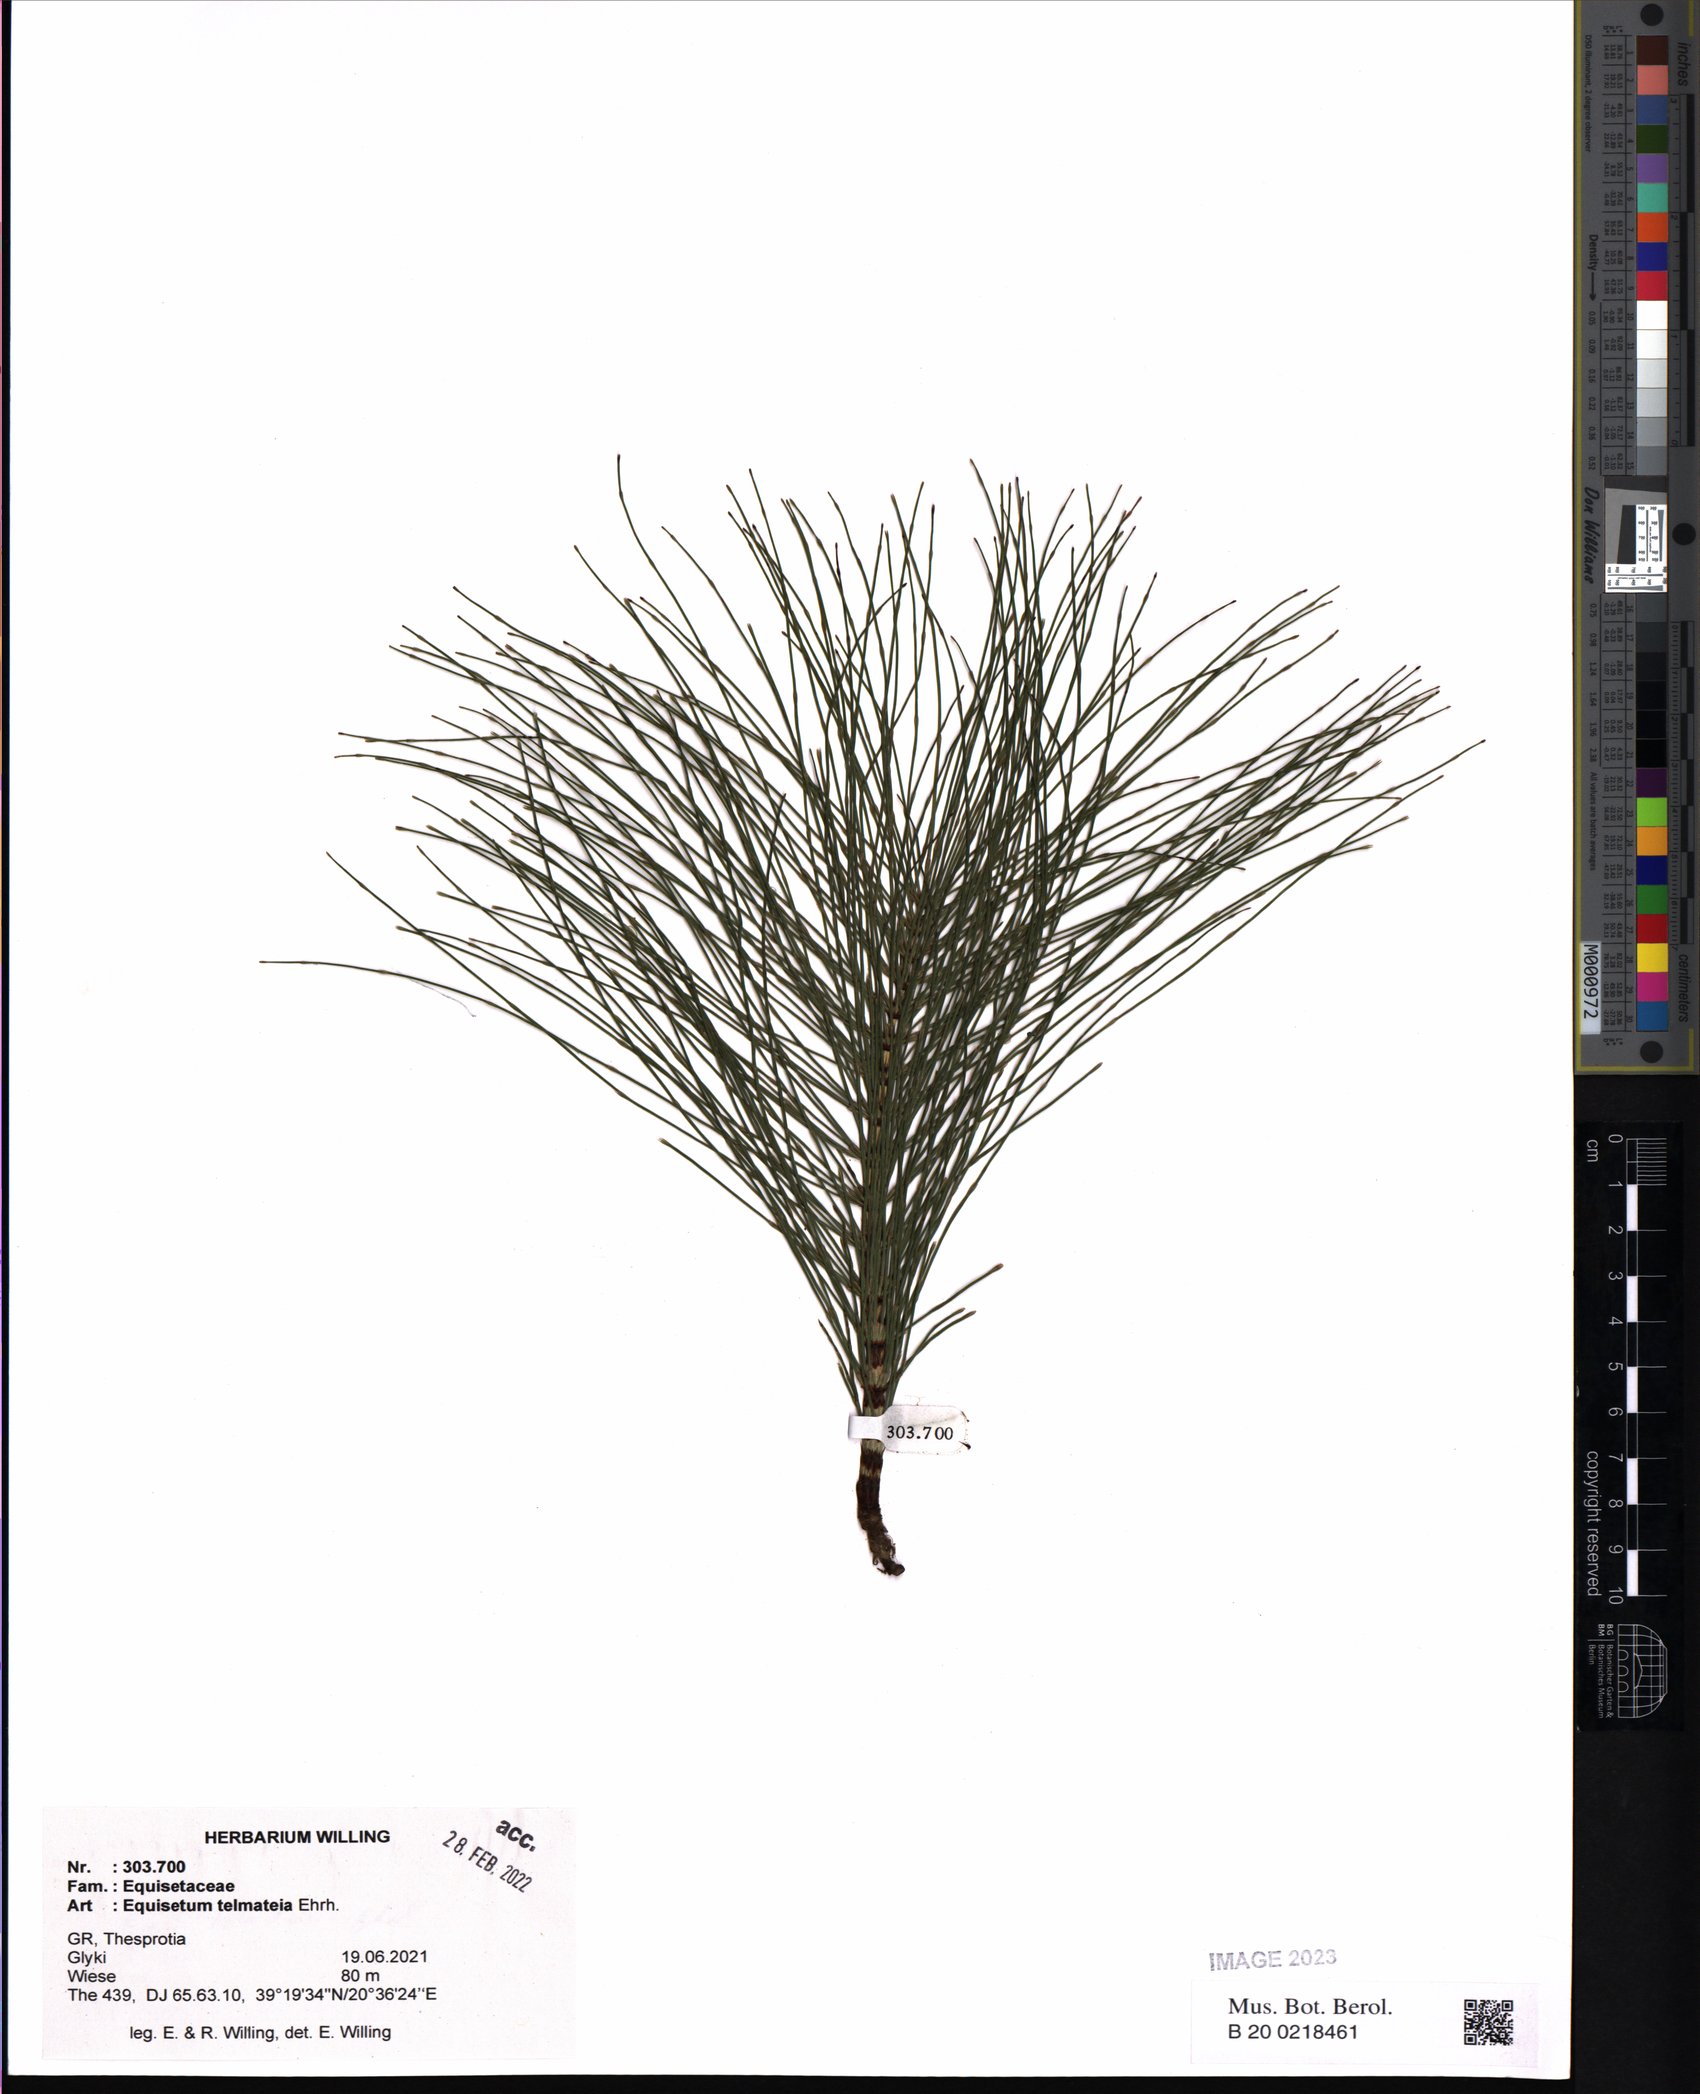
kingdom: Plantae
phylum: Tracheophyta
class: Polypodiopsida
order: Equisetales
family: Equisetaceae
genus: Equisetum
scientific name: Equisetum telmateia
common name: Great horsetail
